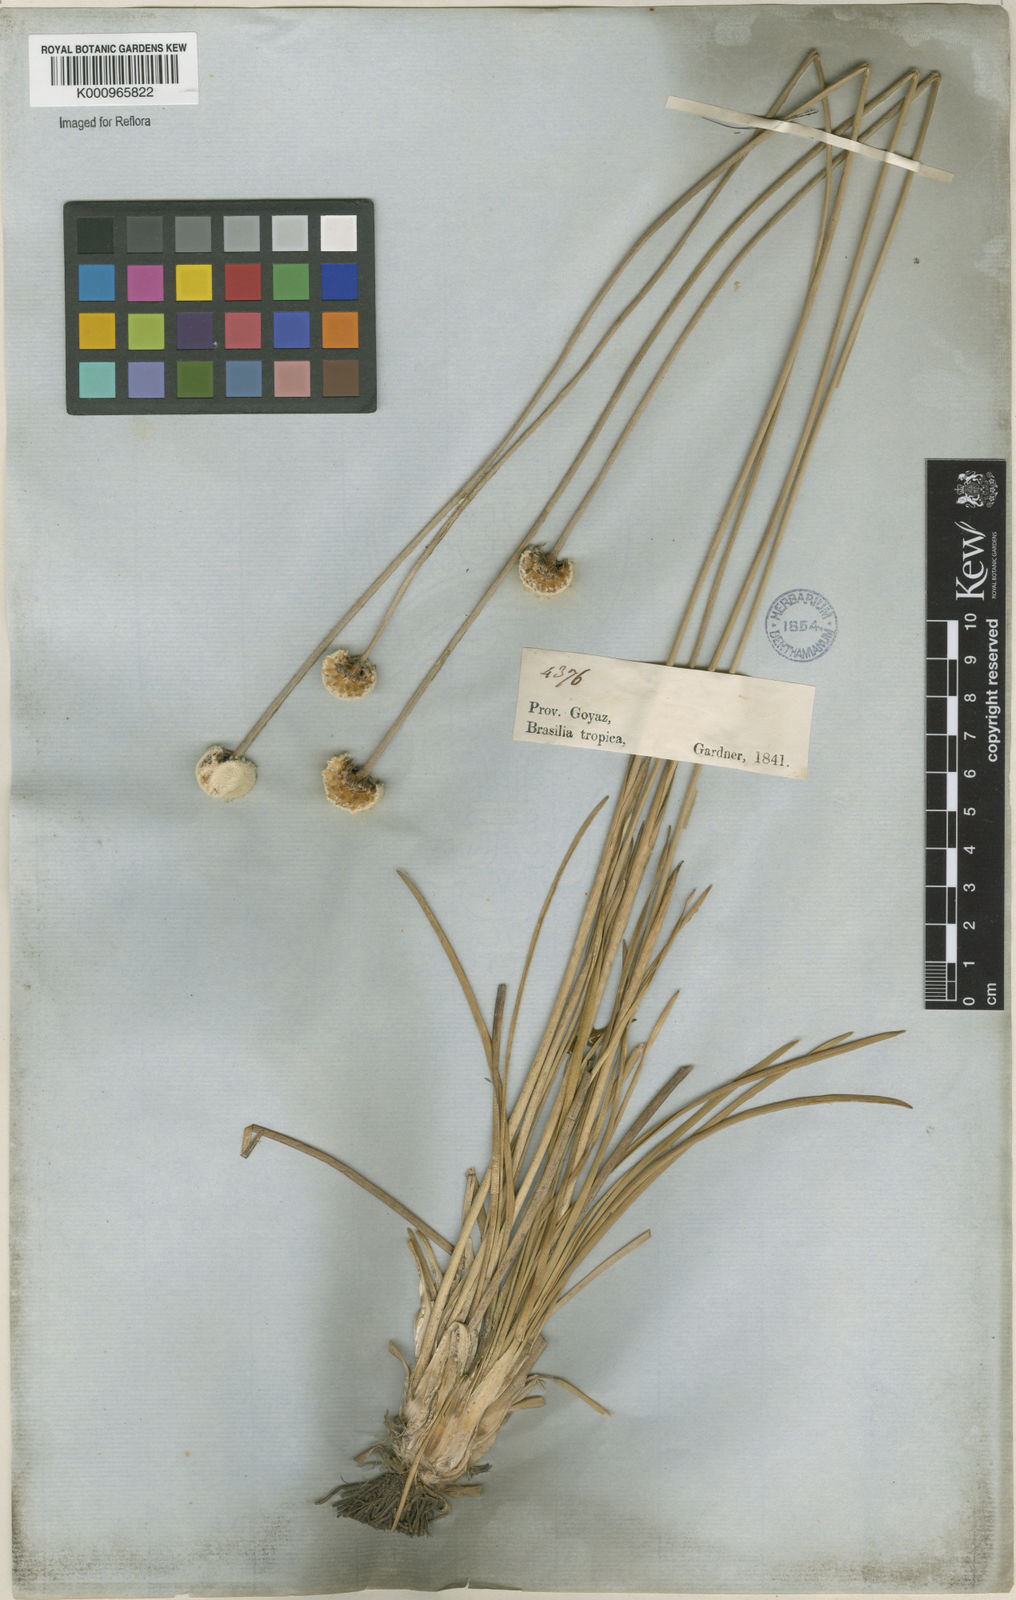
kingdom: Plantae
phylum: Tracheophyta
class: Liliopsida
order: Poales
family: Eriocaulaceae
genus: Paepalanthus
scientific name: Paepalanthus
